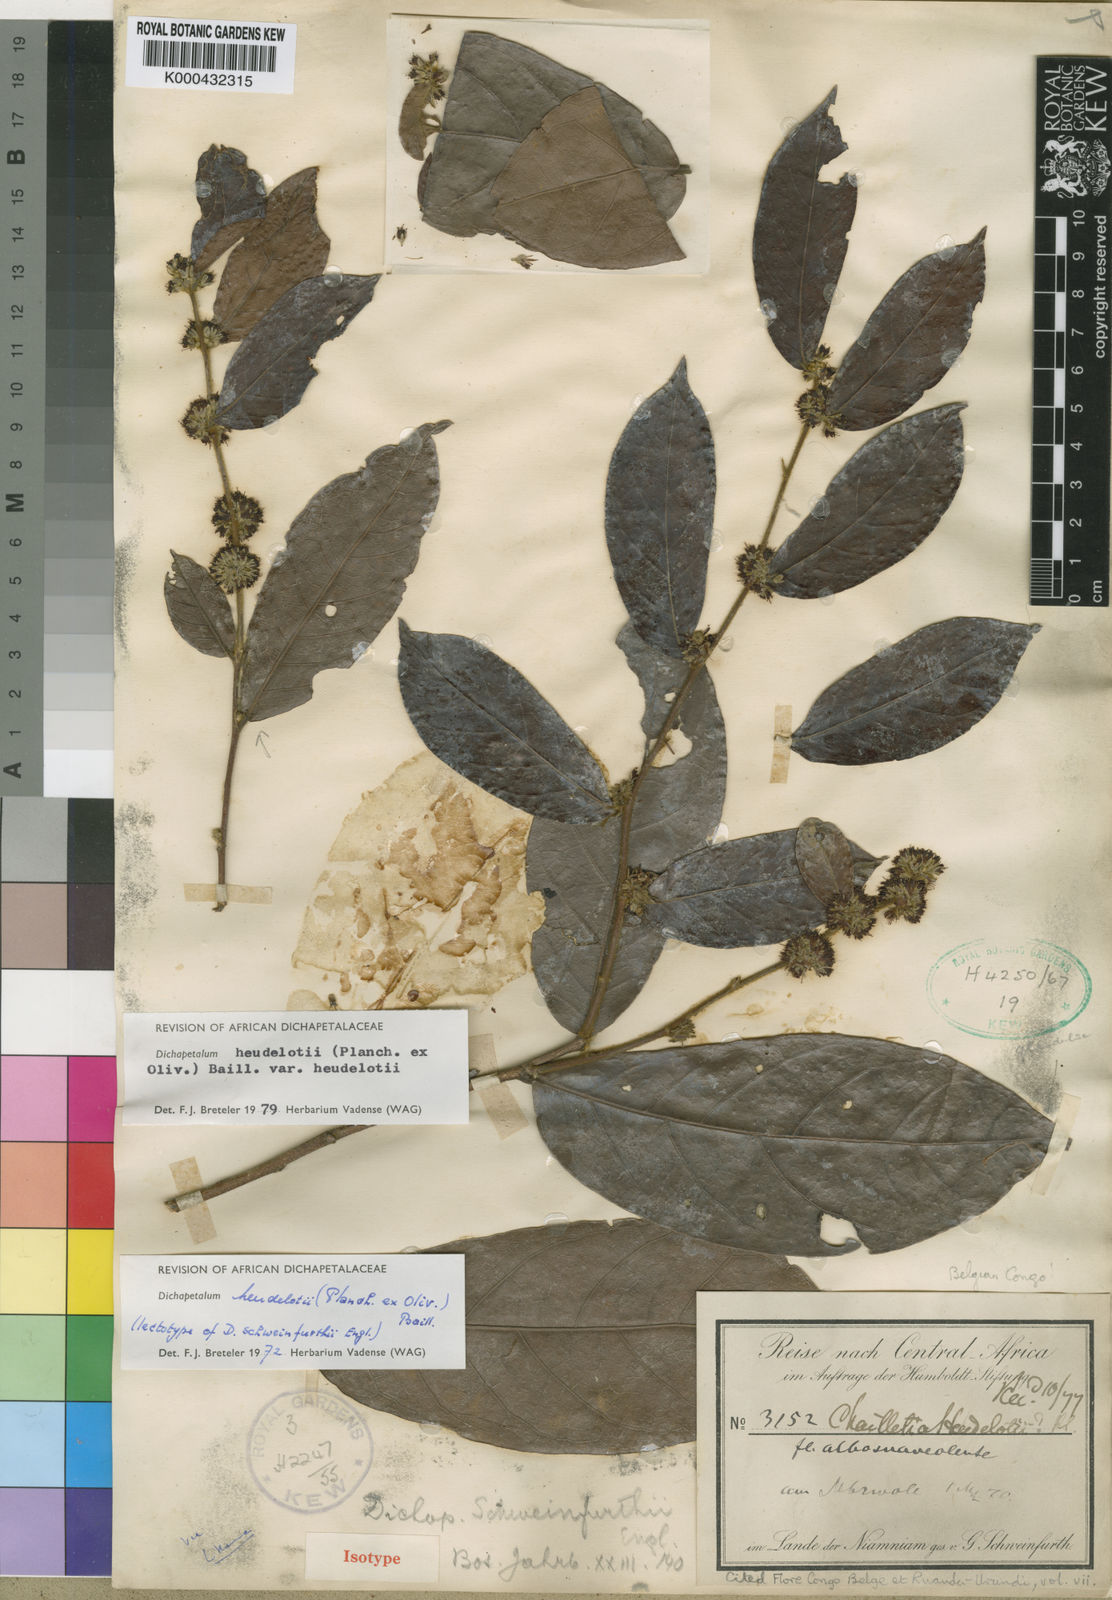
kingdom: Plantae
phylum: Tracheophyta
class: Magnoliopsida
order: Malpighiales
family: Dichapetalaceae
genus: Dichapetalum
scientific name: Dichapetalum heudelotii
